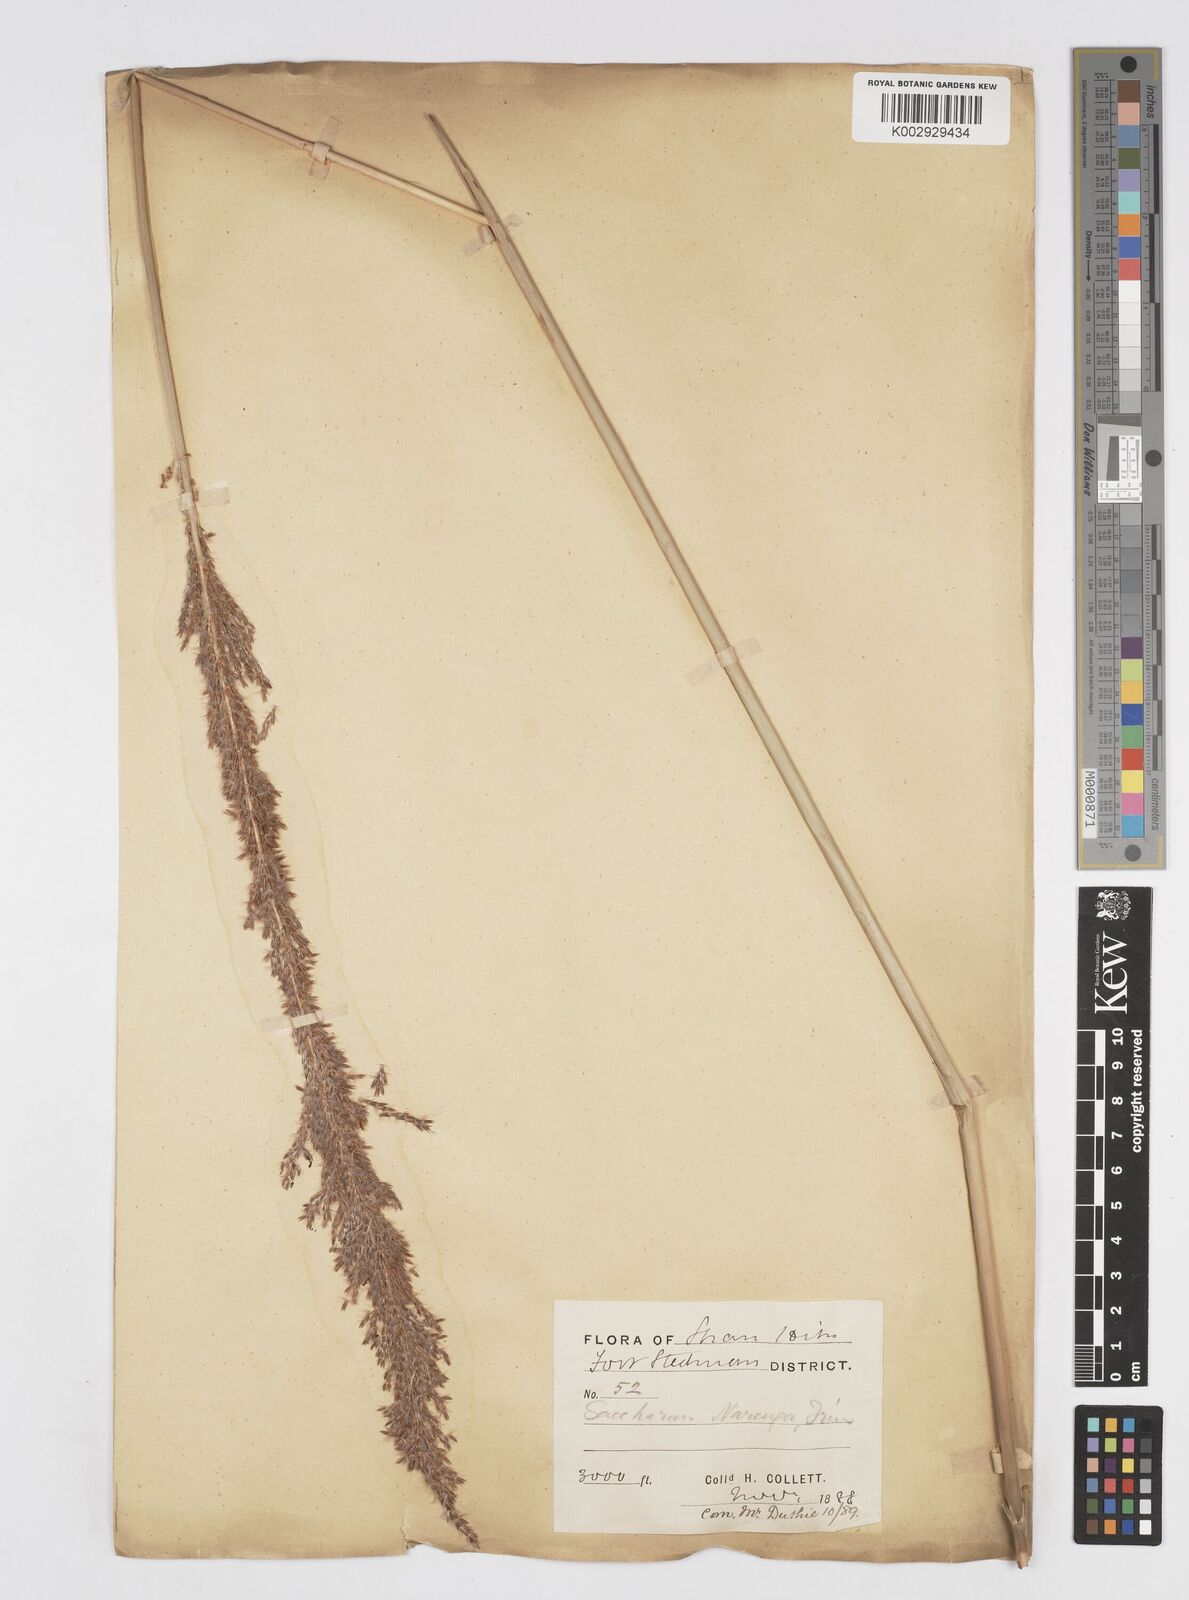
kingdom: Plantae
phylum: Tracheophyta
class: Liliopsida
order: Poales
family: Poaceae
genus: Saccharum
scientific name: Saccharum
